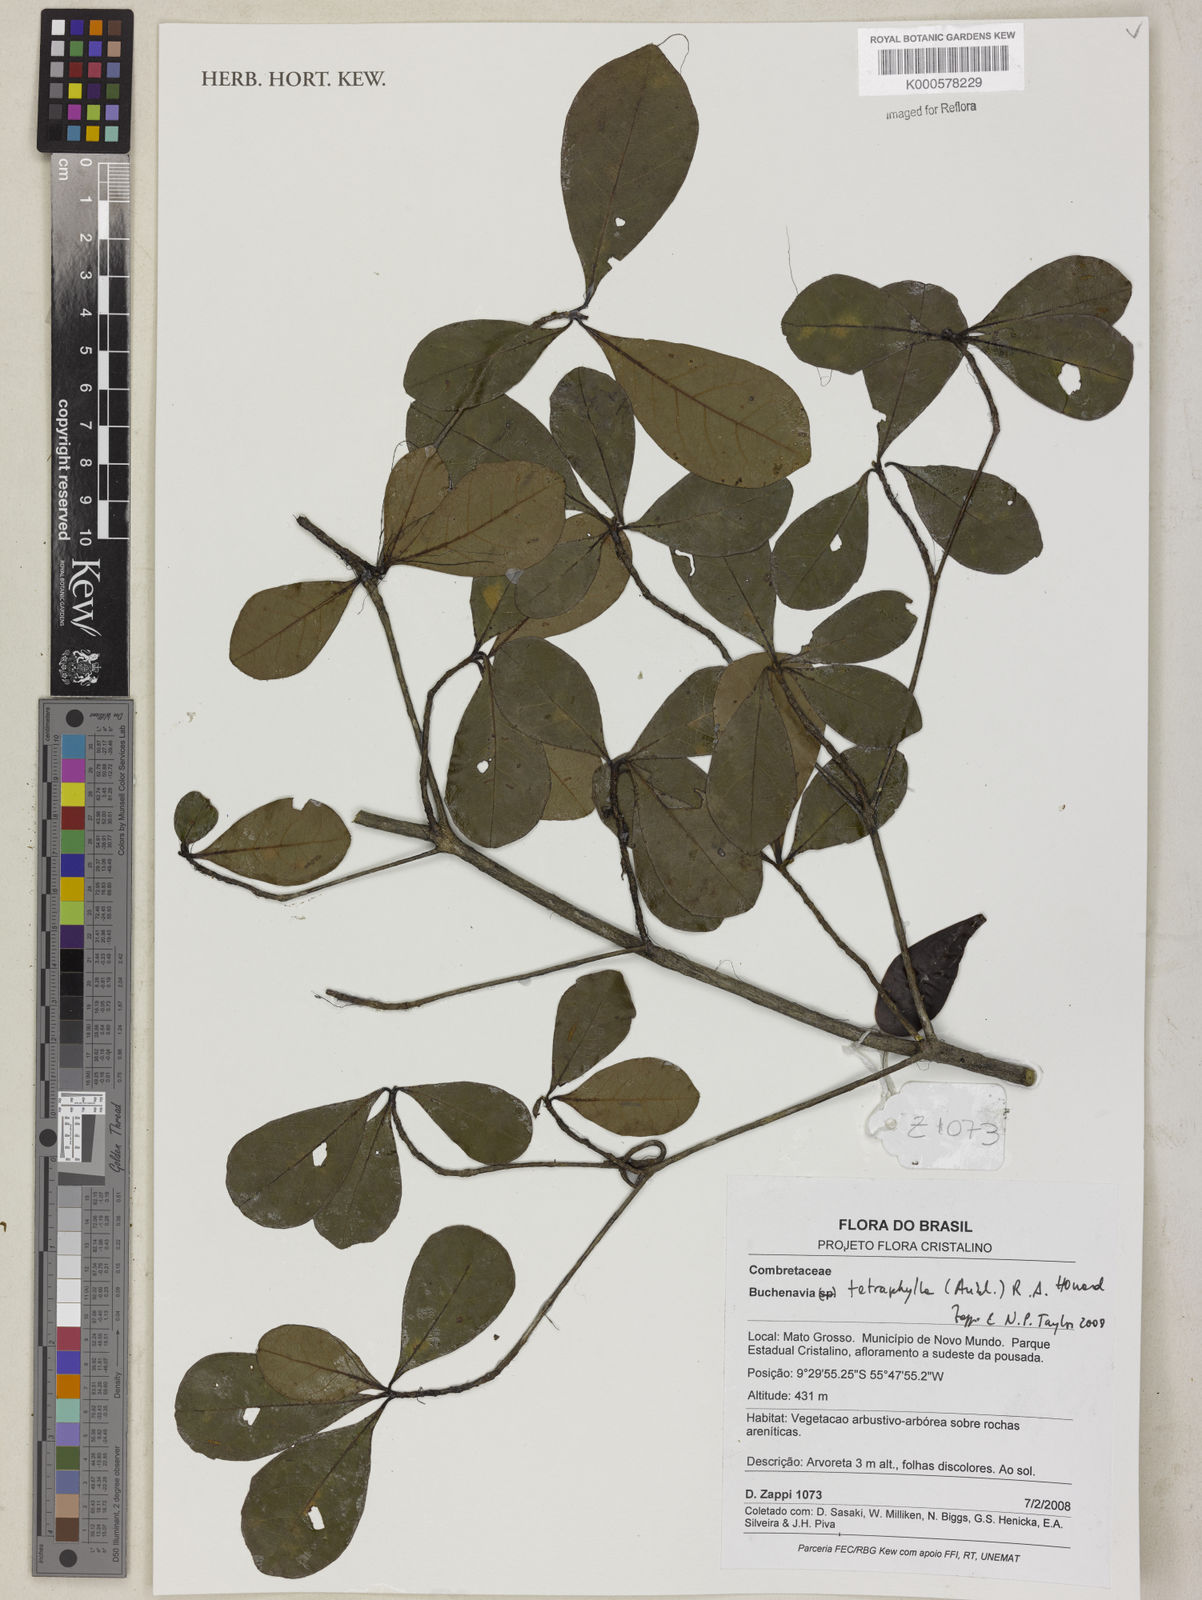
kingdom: Plantae
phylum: Tracheophyta
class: Magnoliopsida
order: Myrtales
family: Combretaceae
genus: Terminalia
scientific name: Terminalia tetraphylla
